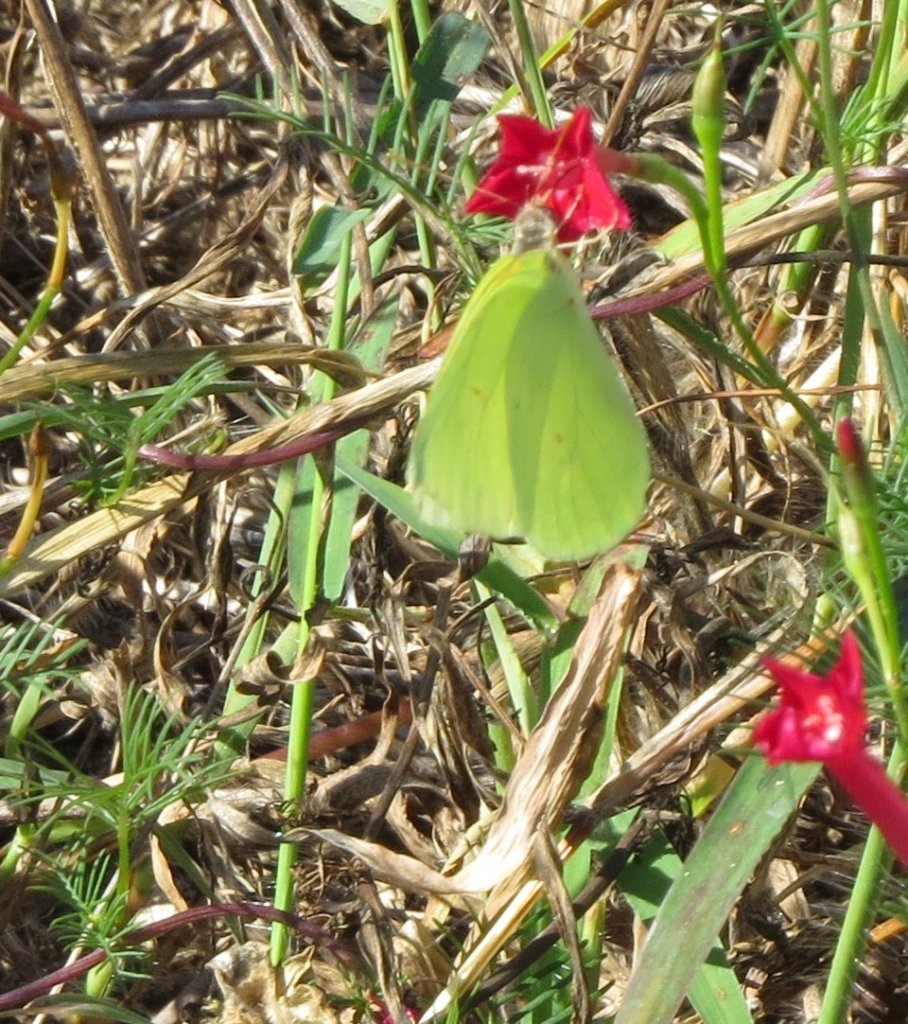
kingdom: Animalia
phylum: Arthropoda
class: Insecta
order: Lepidoptera
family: Pieridae
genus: Phoebis
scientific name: Phoebis sennae
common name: Cloudless Sulphur
